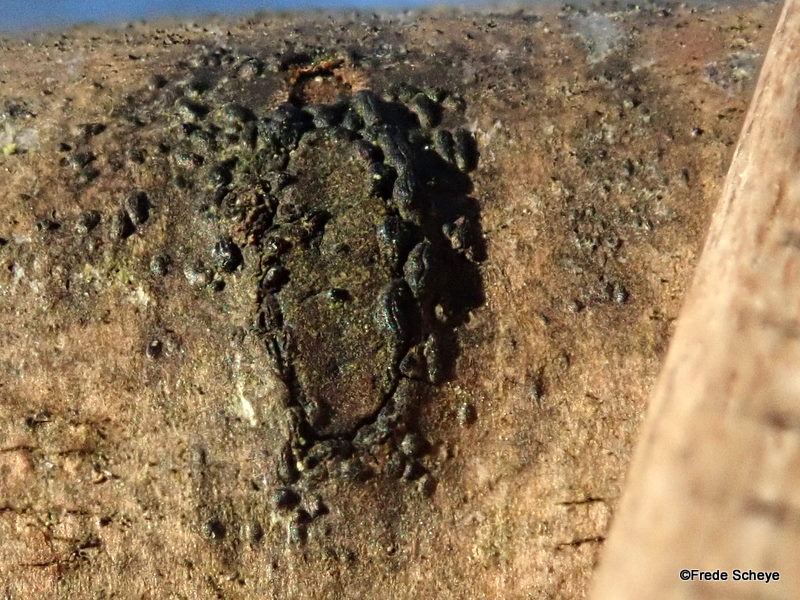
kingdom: Fungi
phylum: Ascomycota
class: Dothideomycetes
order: Hysteriales
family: Hysteriaceae
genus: Hysterium
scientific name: Hysterium acuminatum
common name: almindelig kulmund
